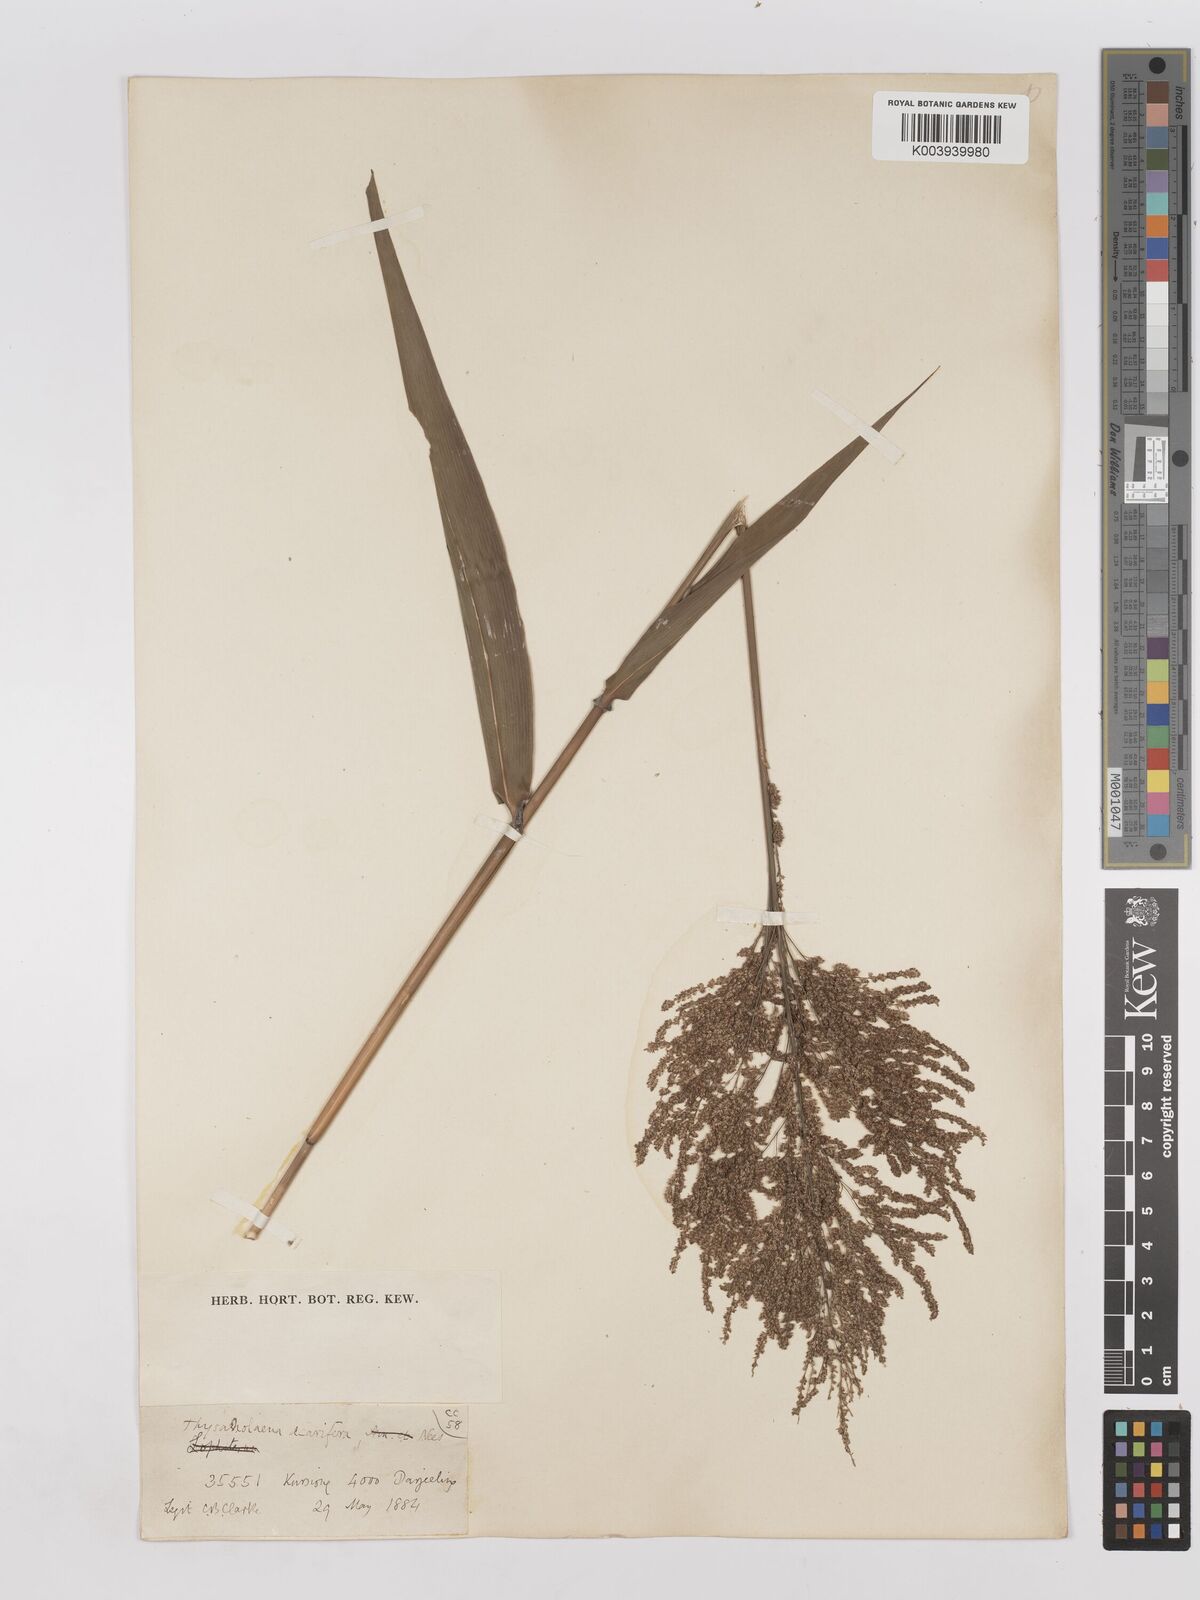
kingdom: Plantae
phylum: Tracheophyta
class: Liliopsida
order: Poales
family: Poaceae
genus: Thysanolaena
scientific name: Thysanolaena latifolia
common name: Tiger grass
